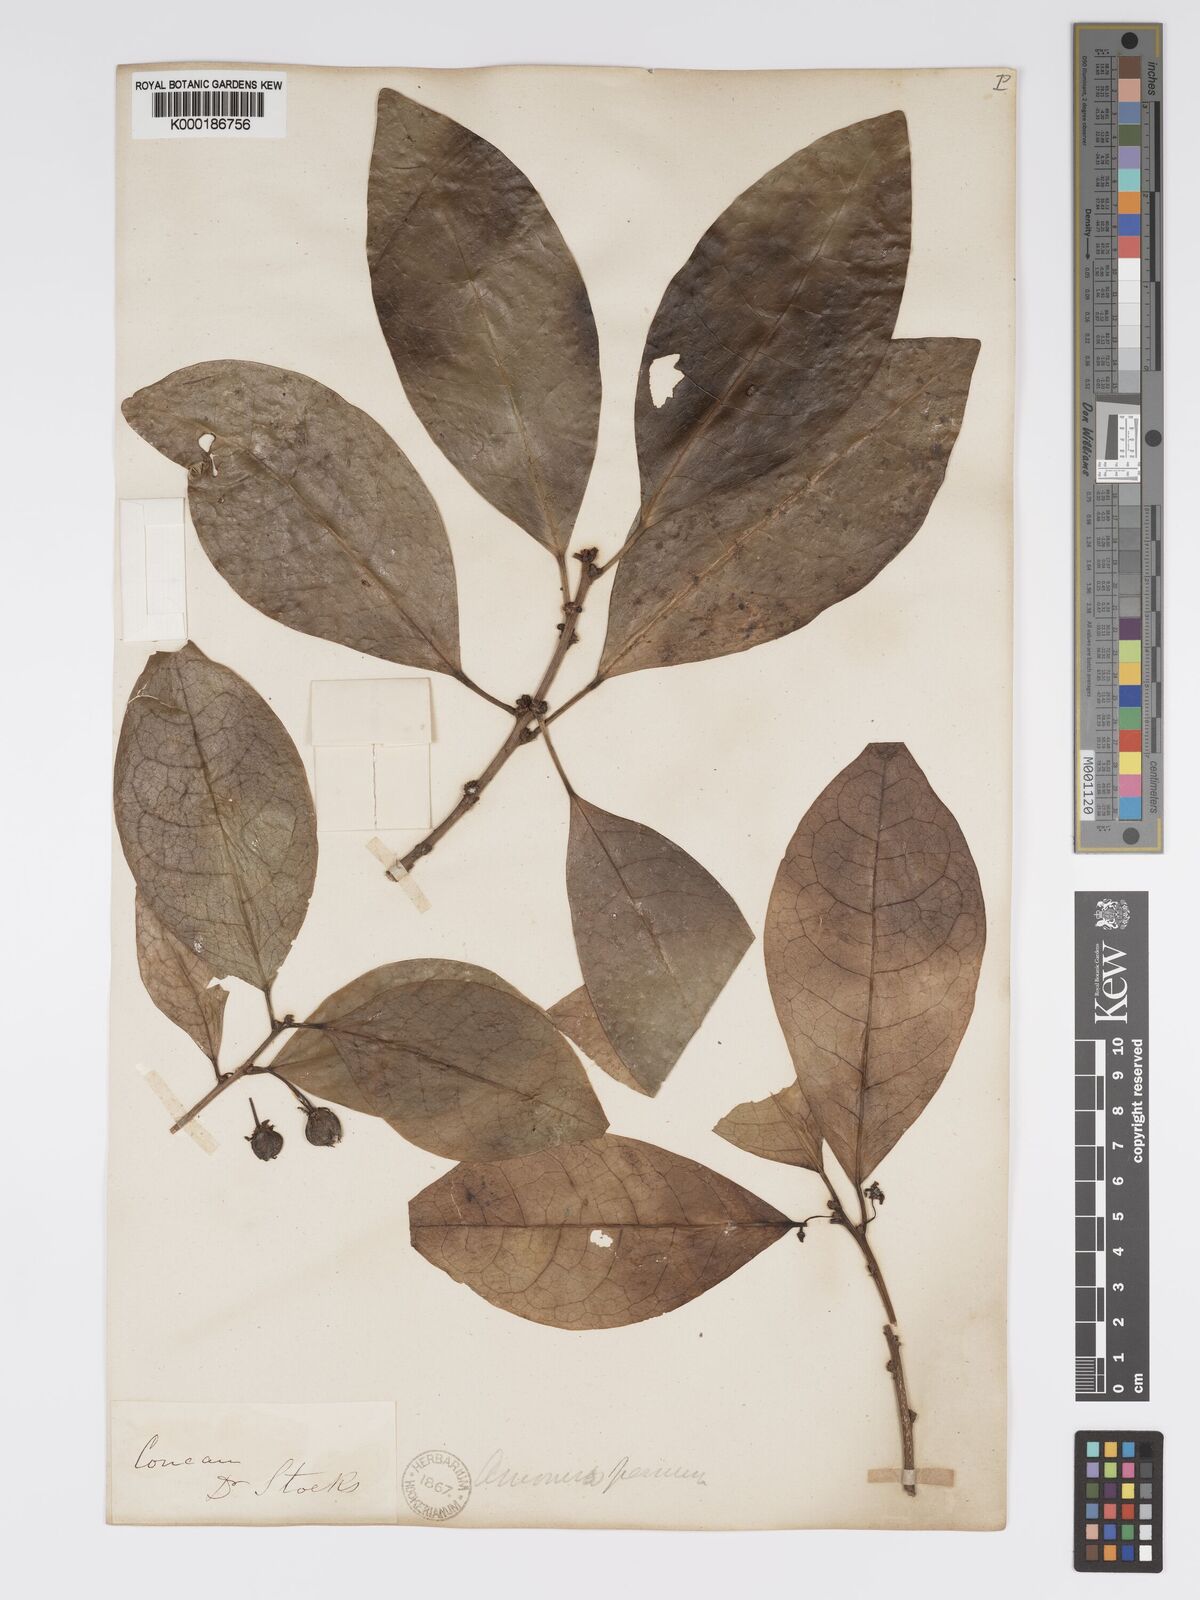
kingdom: Plantae
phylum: Tracheophyta
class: Magnoliopsida
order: Malpighiales
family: Phyllanthaceae
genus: Actephila
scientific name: Actephila excelsa
